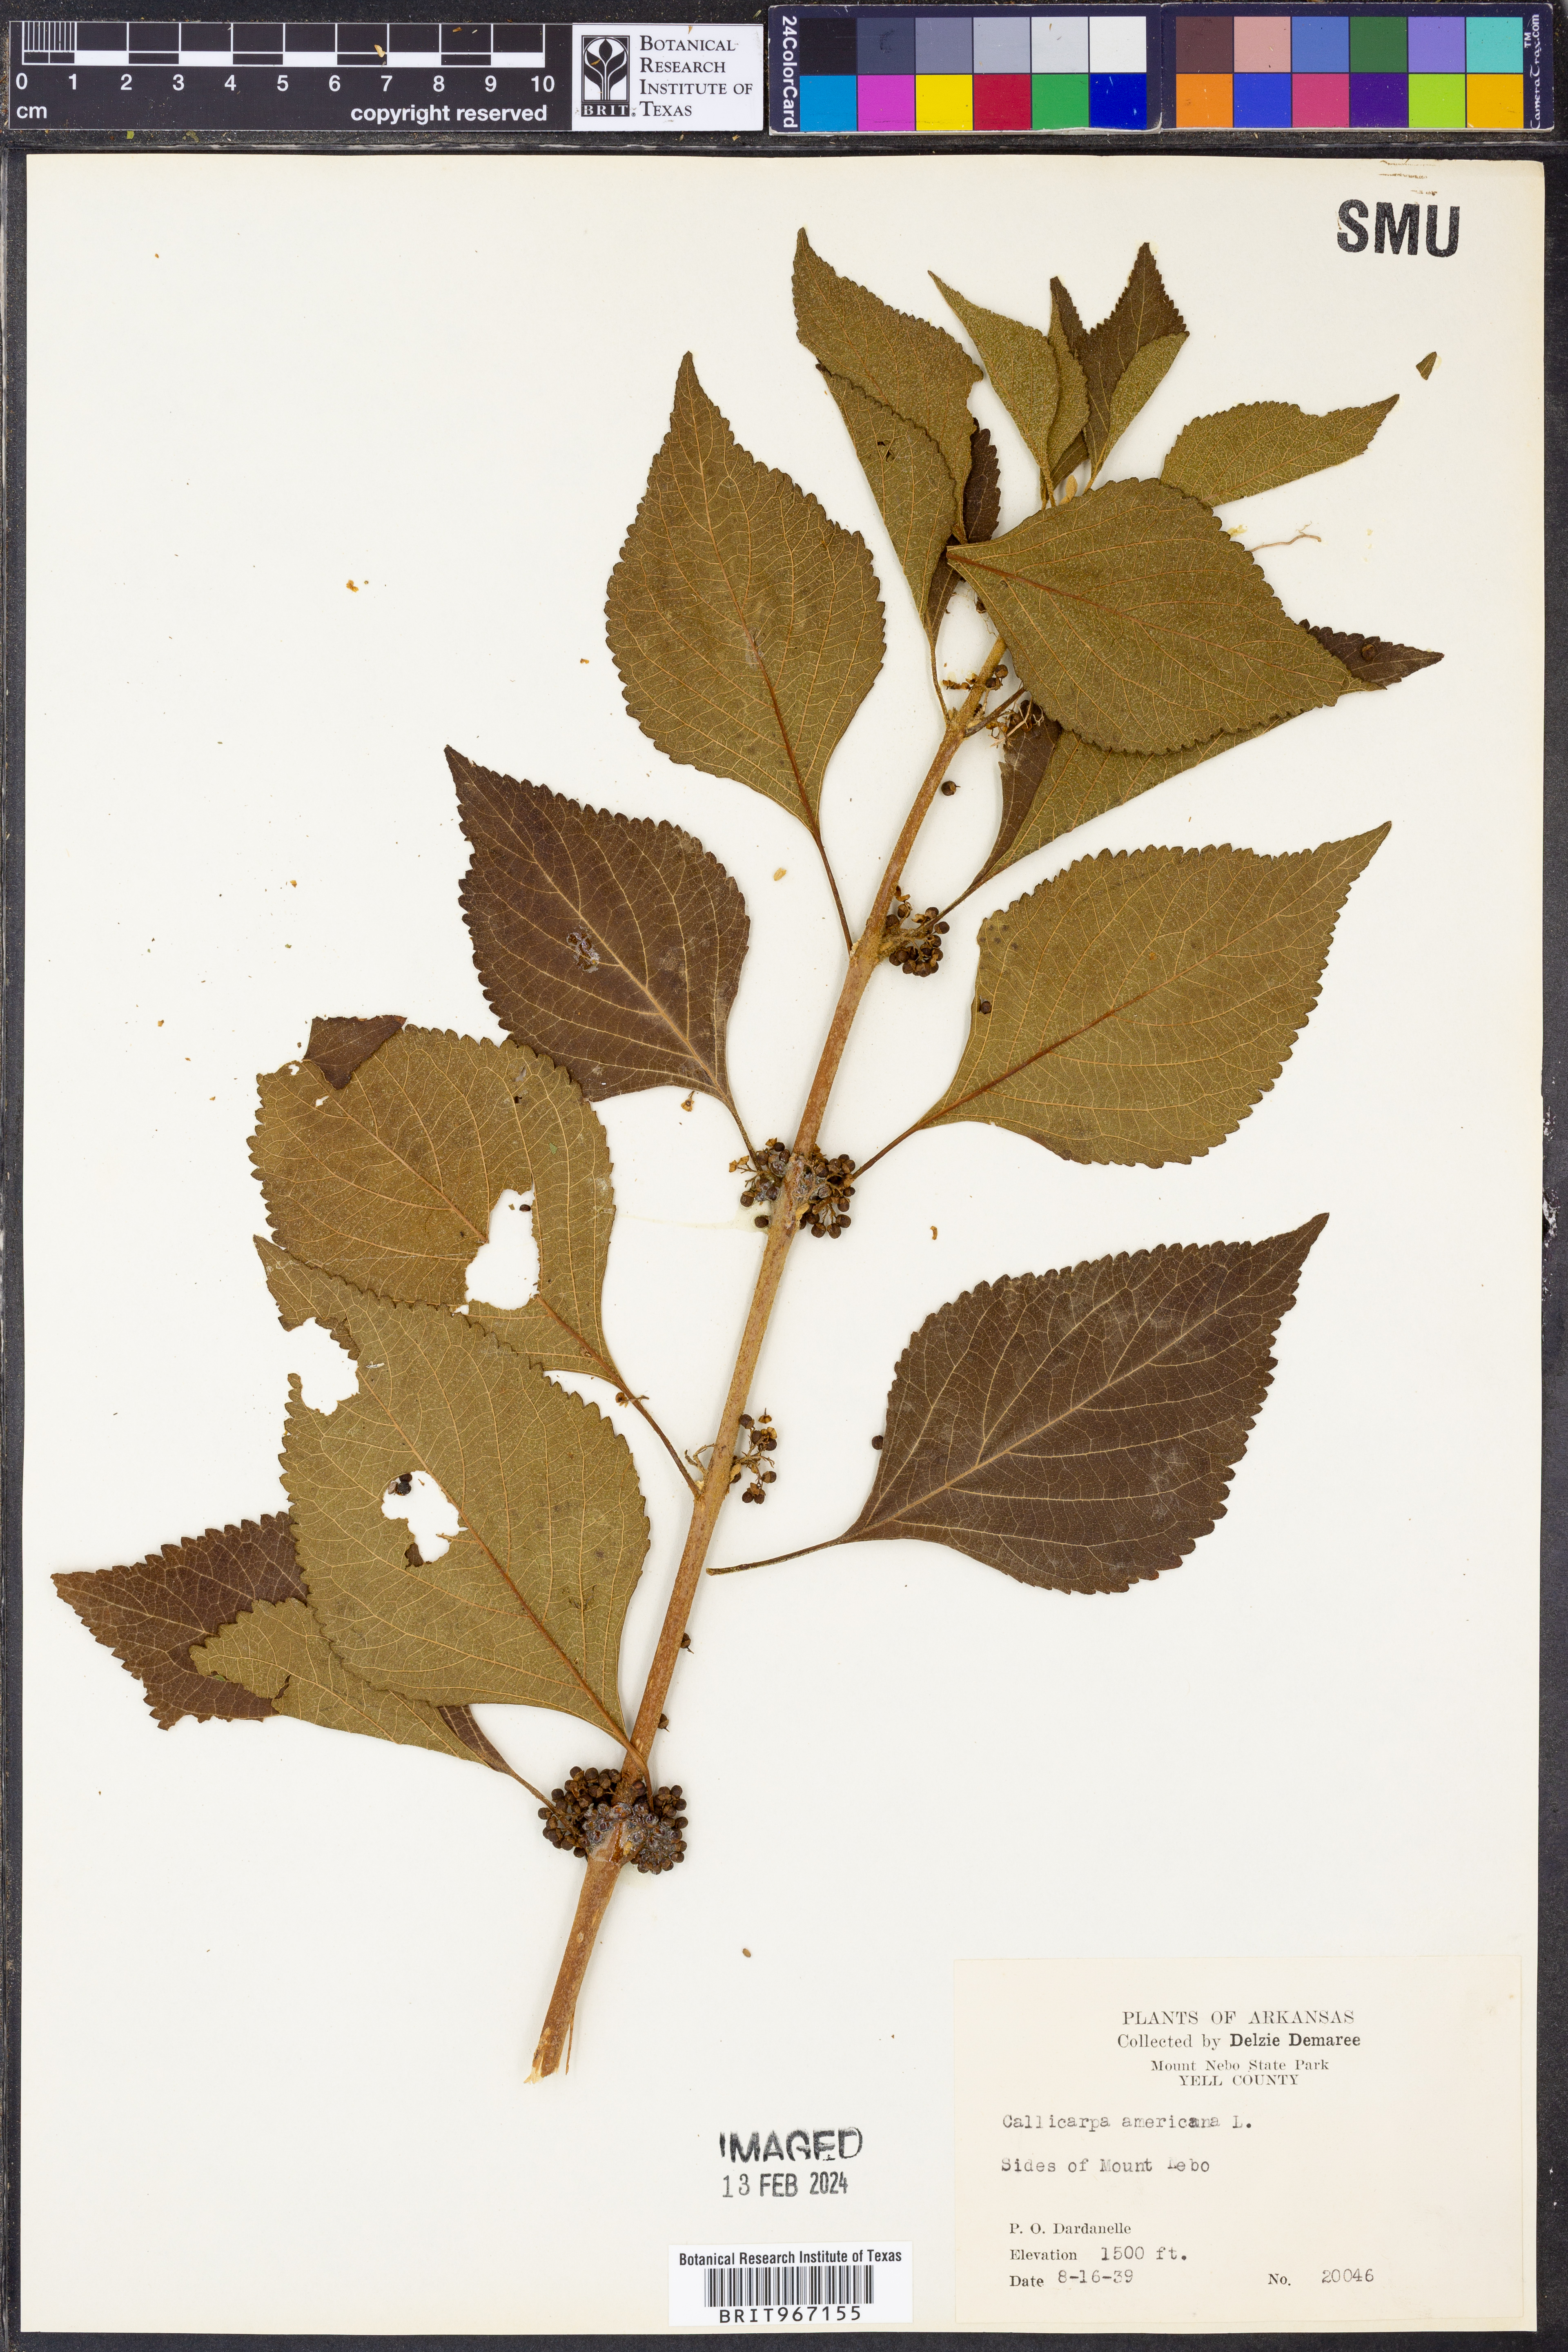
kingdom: Plantae
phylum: Tracheophyta
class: Magnoliopsida
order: Lamiales
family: Lamiaceae
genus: Callicarpa
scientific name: Callicarpa americana
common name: American beautyberry
